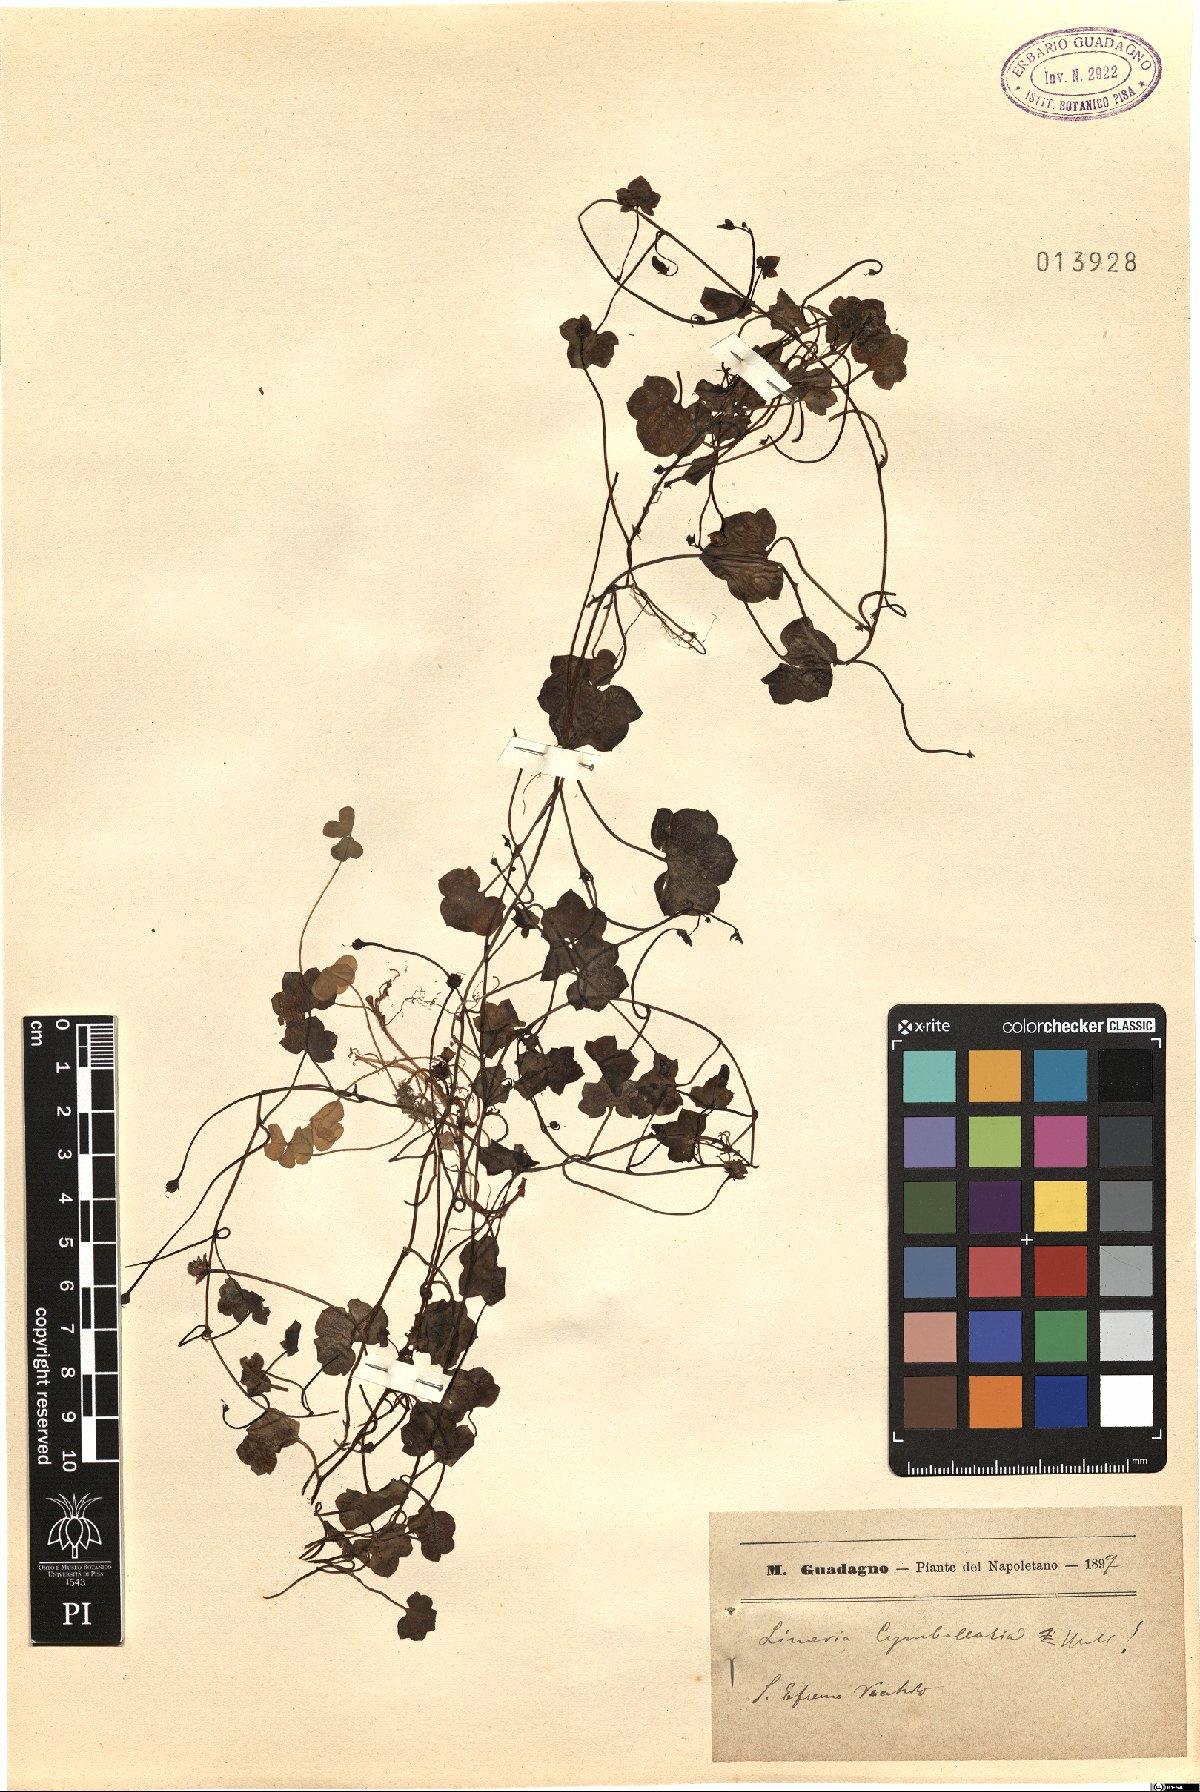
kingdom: Plantae
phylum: Tracheophyta
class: Magnoliopsida
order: Lamiales
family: Plantaginaceae
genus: Cymbalaria
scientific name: Cymbalaria muralis
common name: Ivy-leaved toadflax
